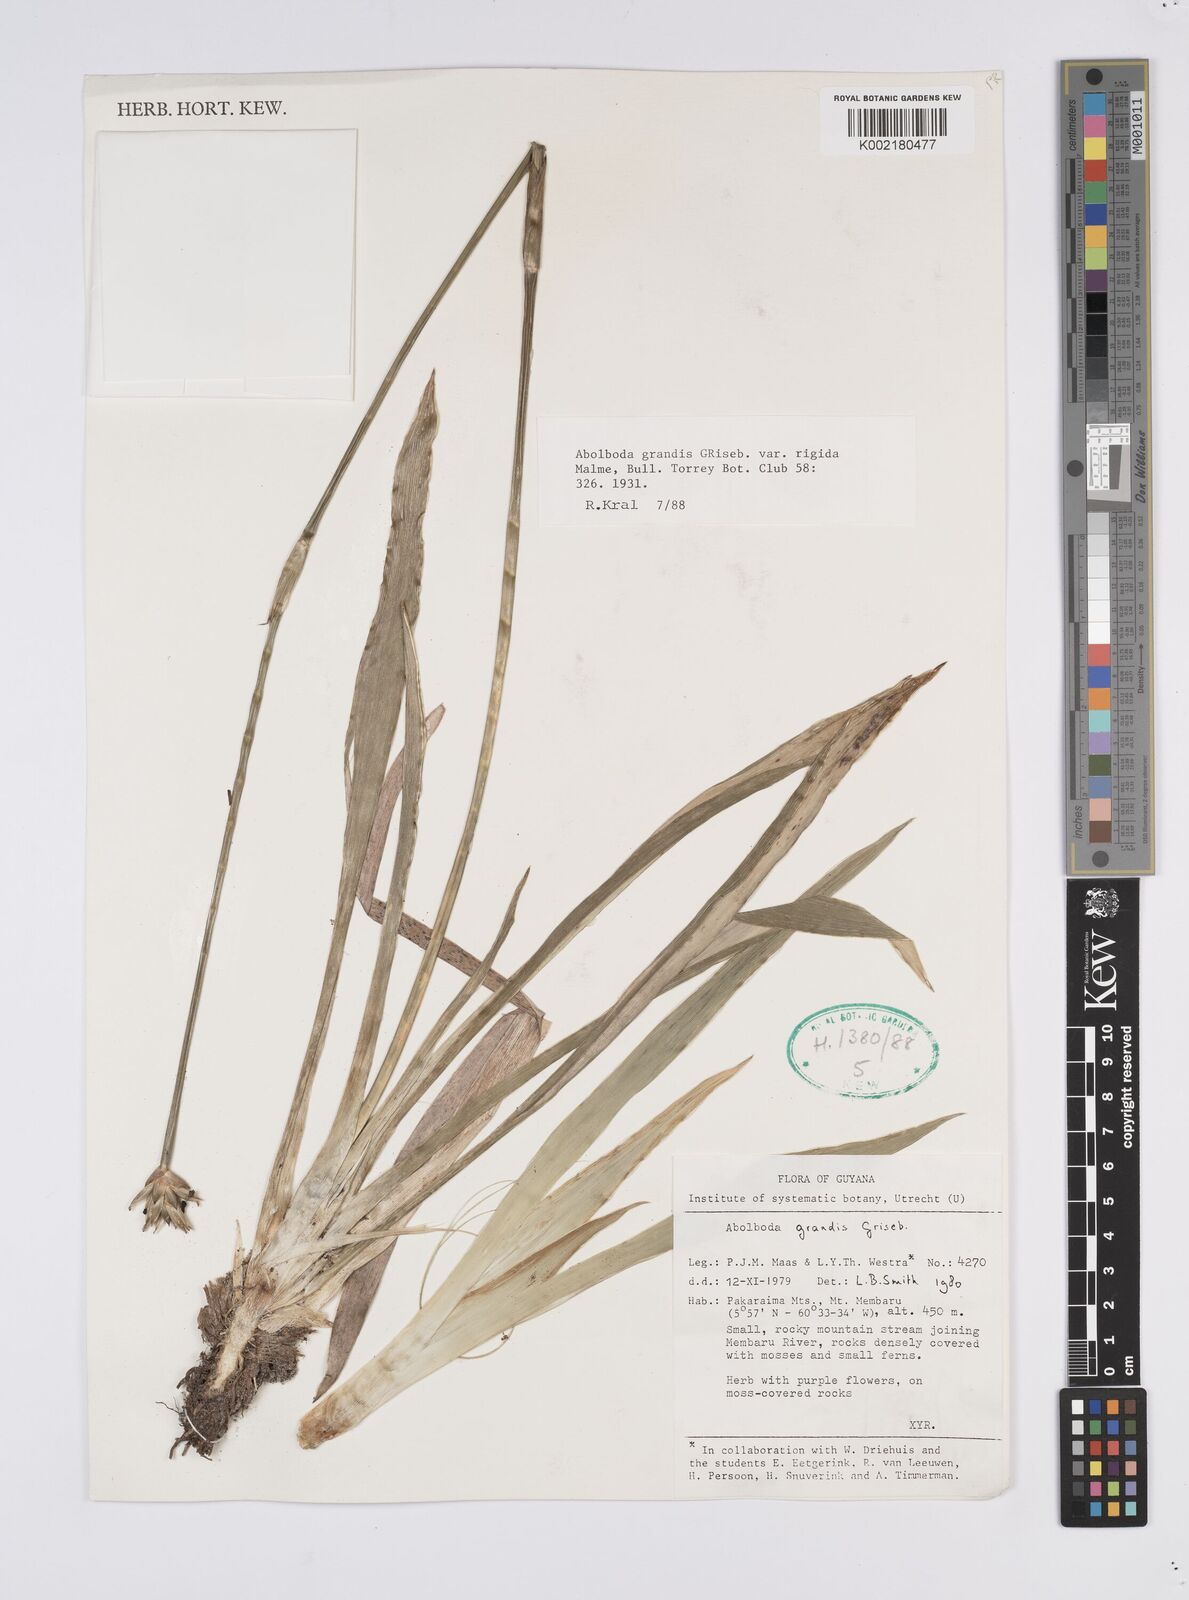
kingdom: Plantae
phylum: Tracheophyta
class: Liliopsida
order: Poales
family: Xyridaceae
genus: Abolboda
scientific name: Abolboda grandis
